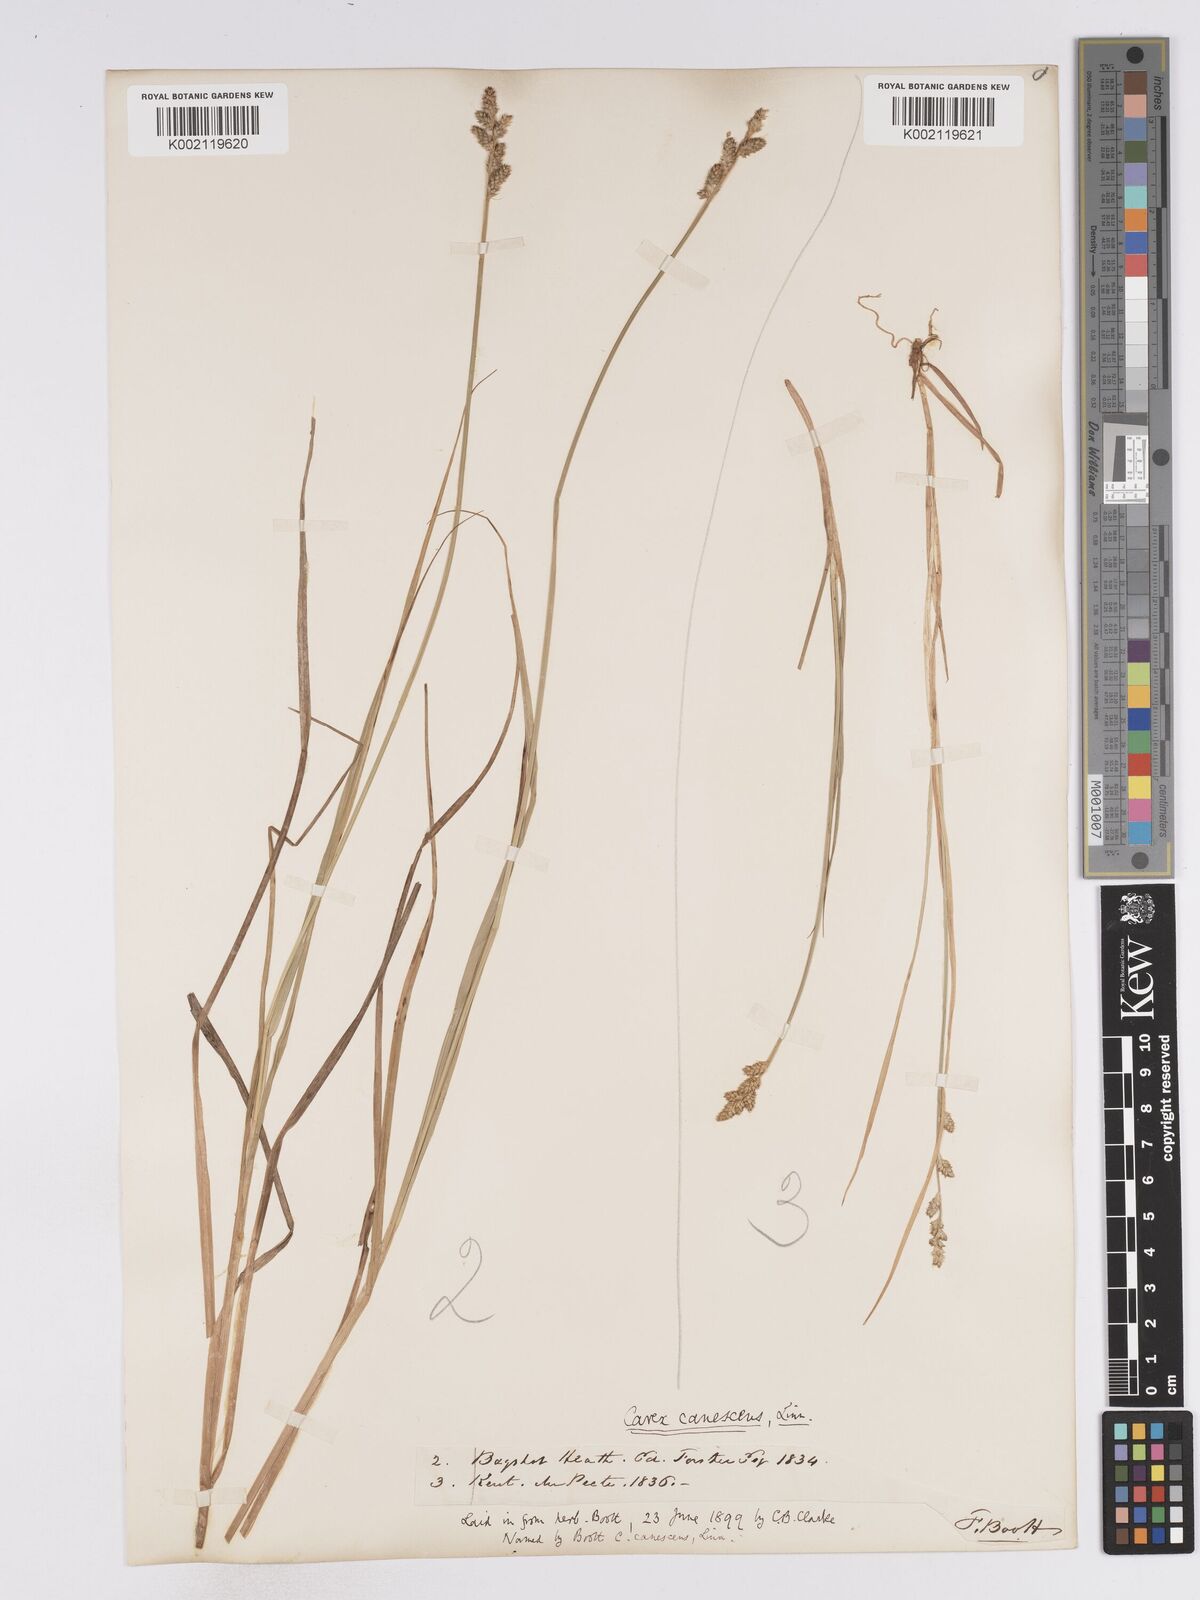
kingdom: Plantae
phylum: Tracheophyta
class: Liliopsida
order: Poales
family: Cyperaceae
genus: Carex
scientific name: Carex curta
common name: White sedge
